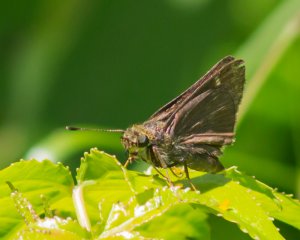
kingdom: Animalia
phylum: Arthropoda
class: Insecta
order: Lepidoptera
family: Hesperiidae
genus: Vernia
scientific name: Vernia verna
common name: Little Glassywing
